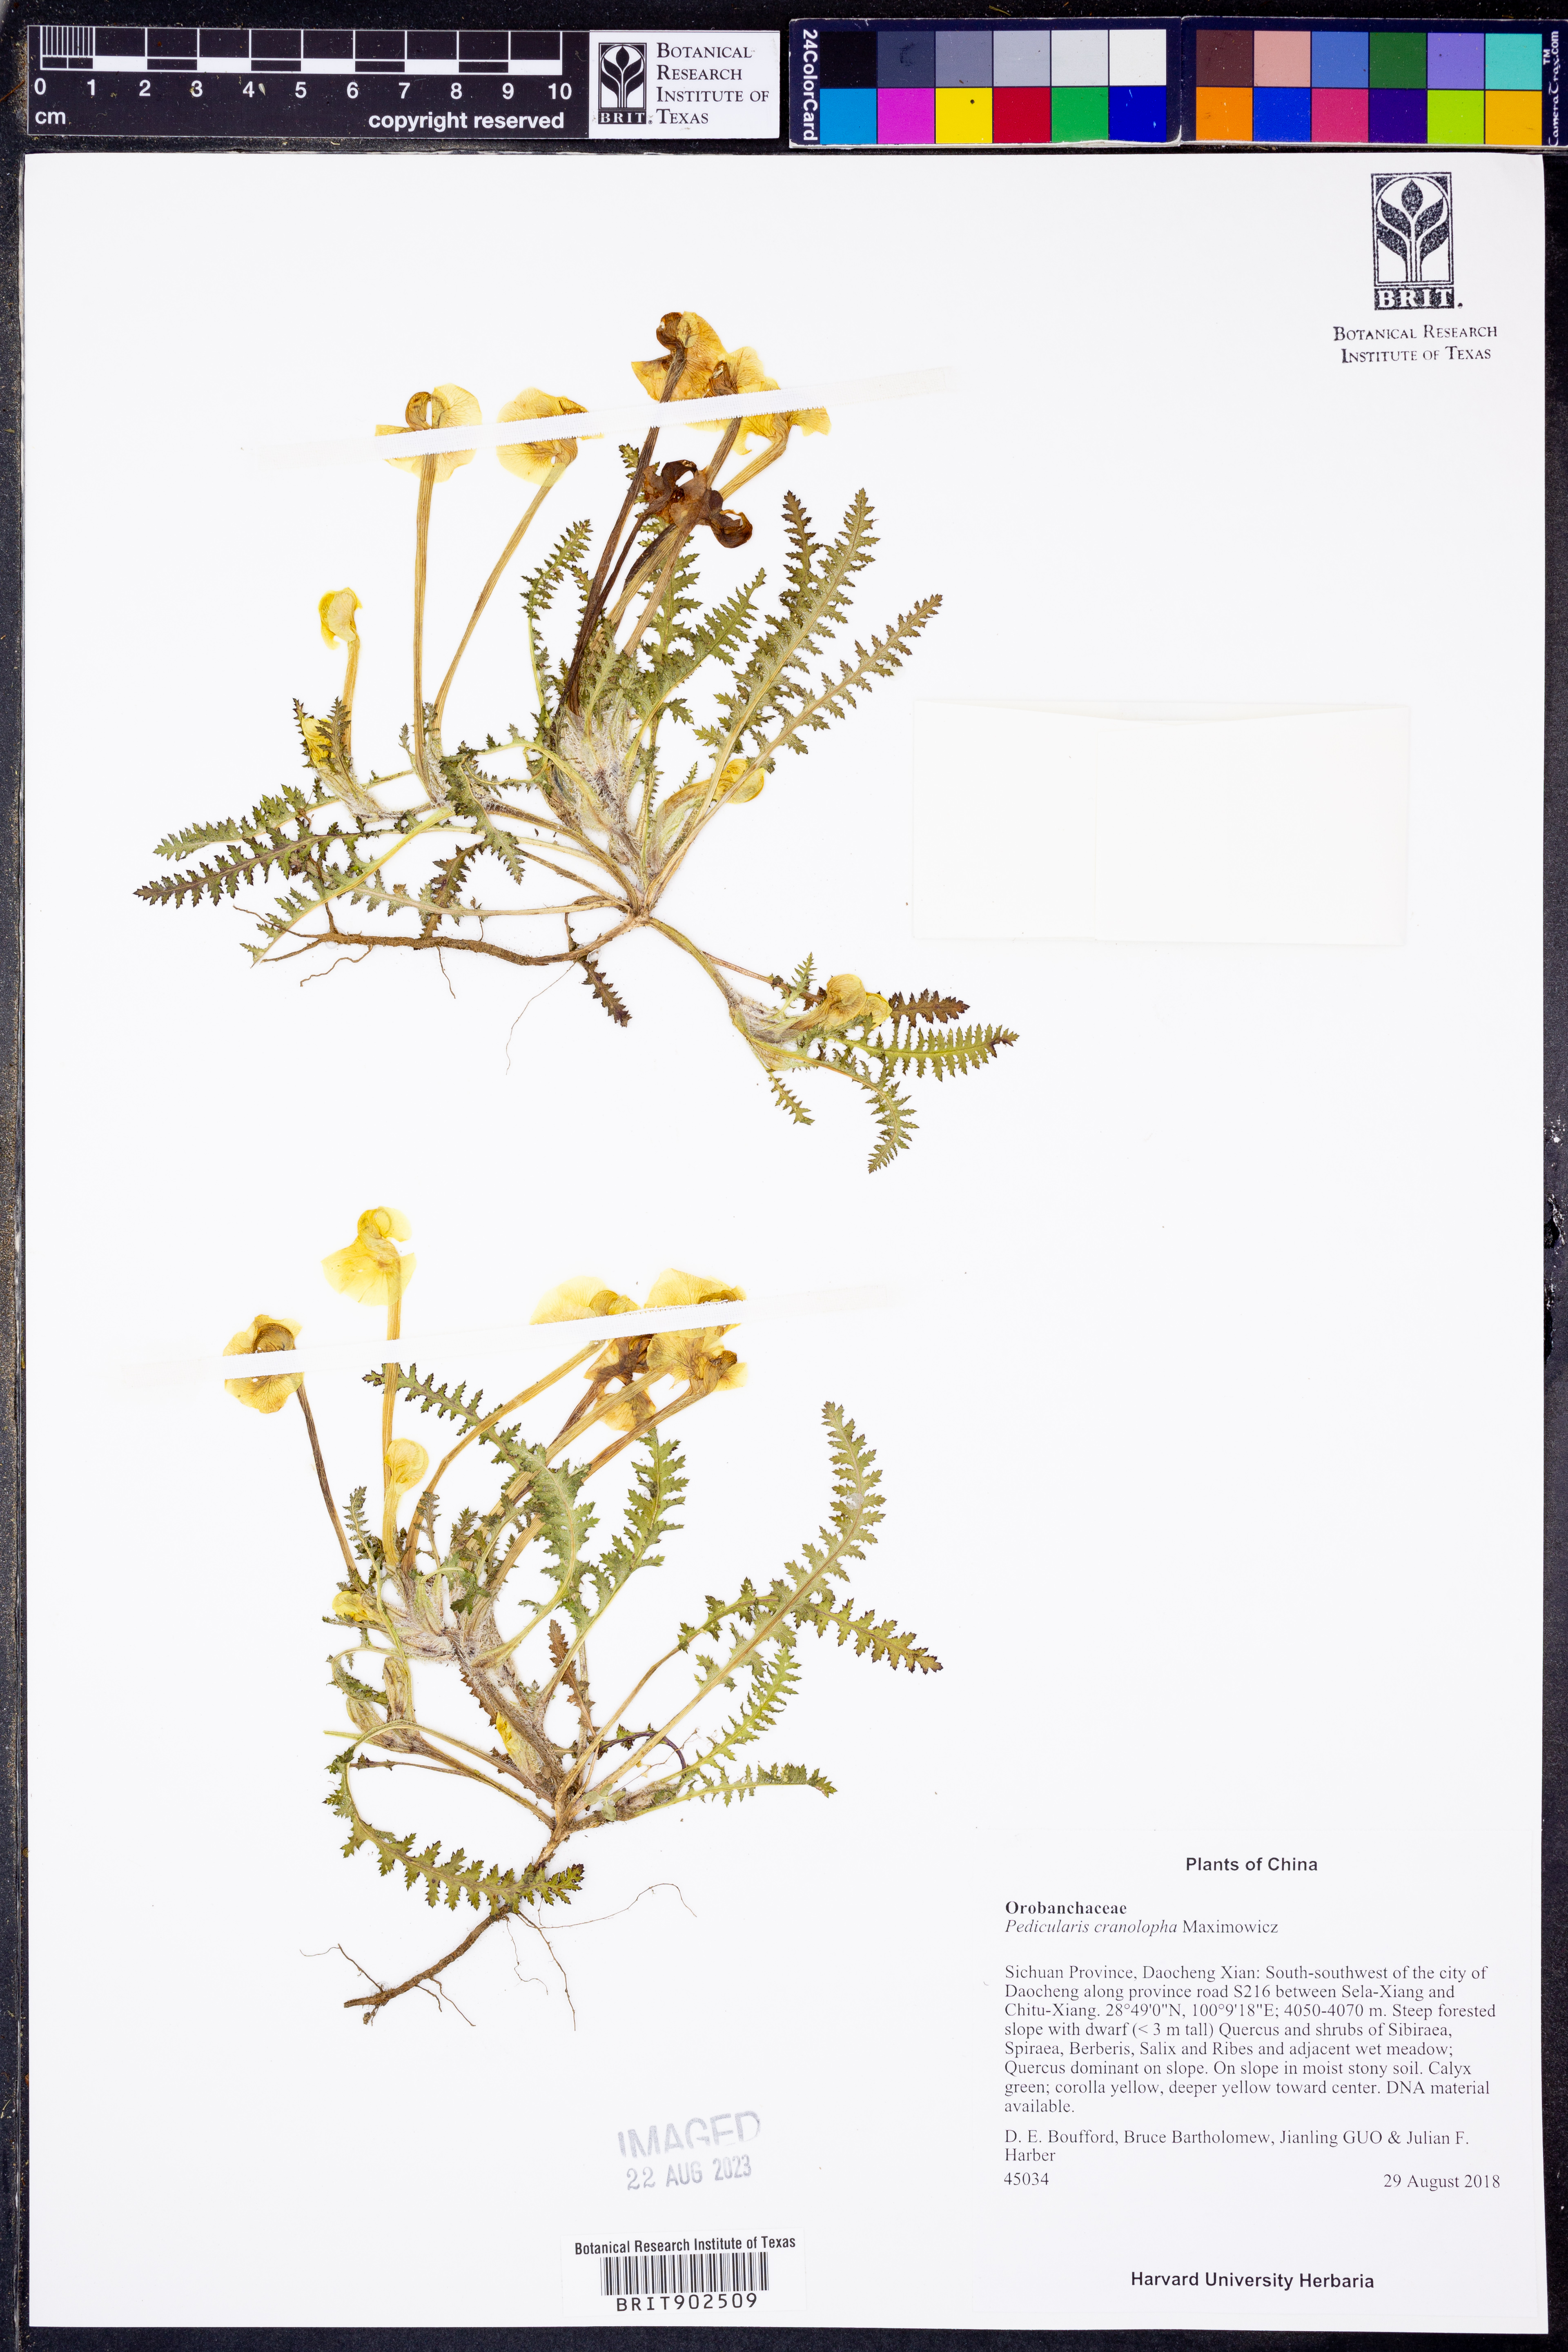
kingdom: Plantae
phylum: Tracheophyta
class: Magnoliopsida
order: Lamiales
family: Orobanchaceae
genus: Pedicularis
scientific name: Pedicularis
